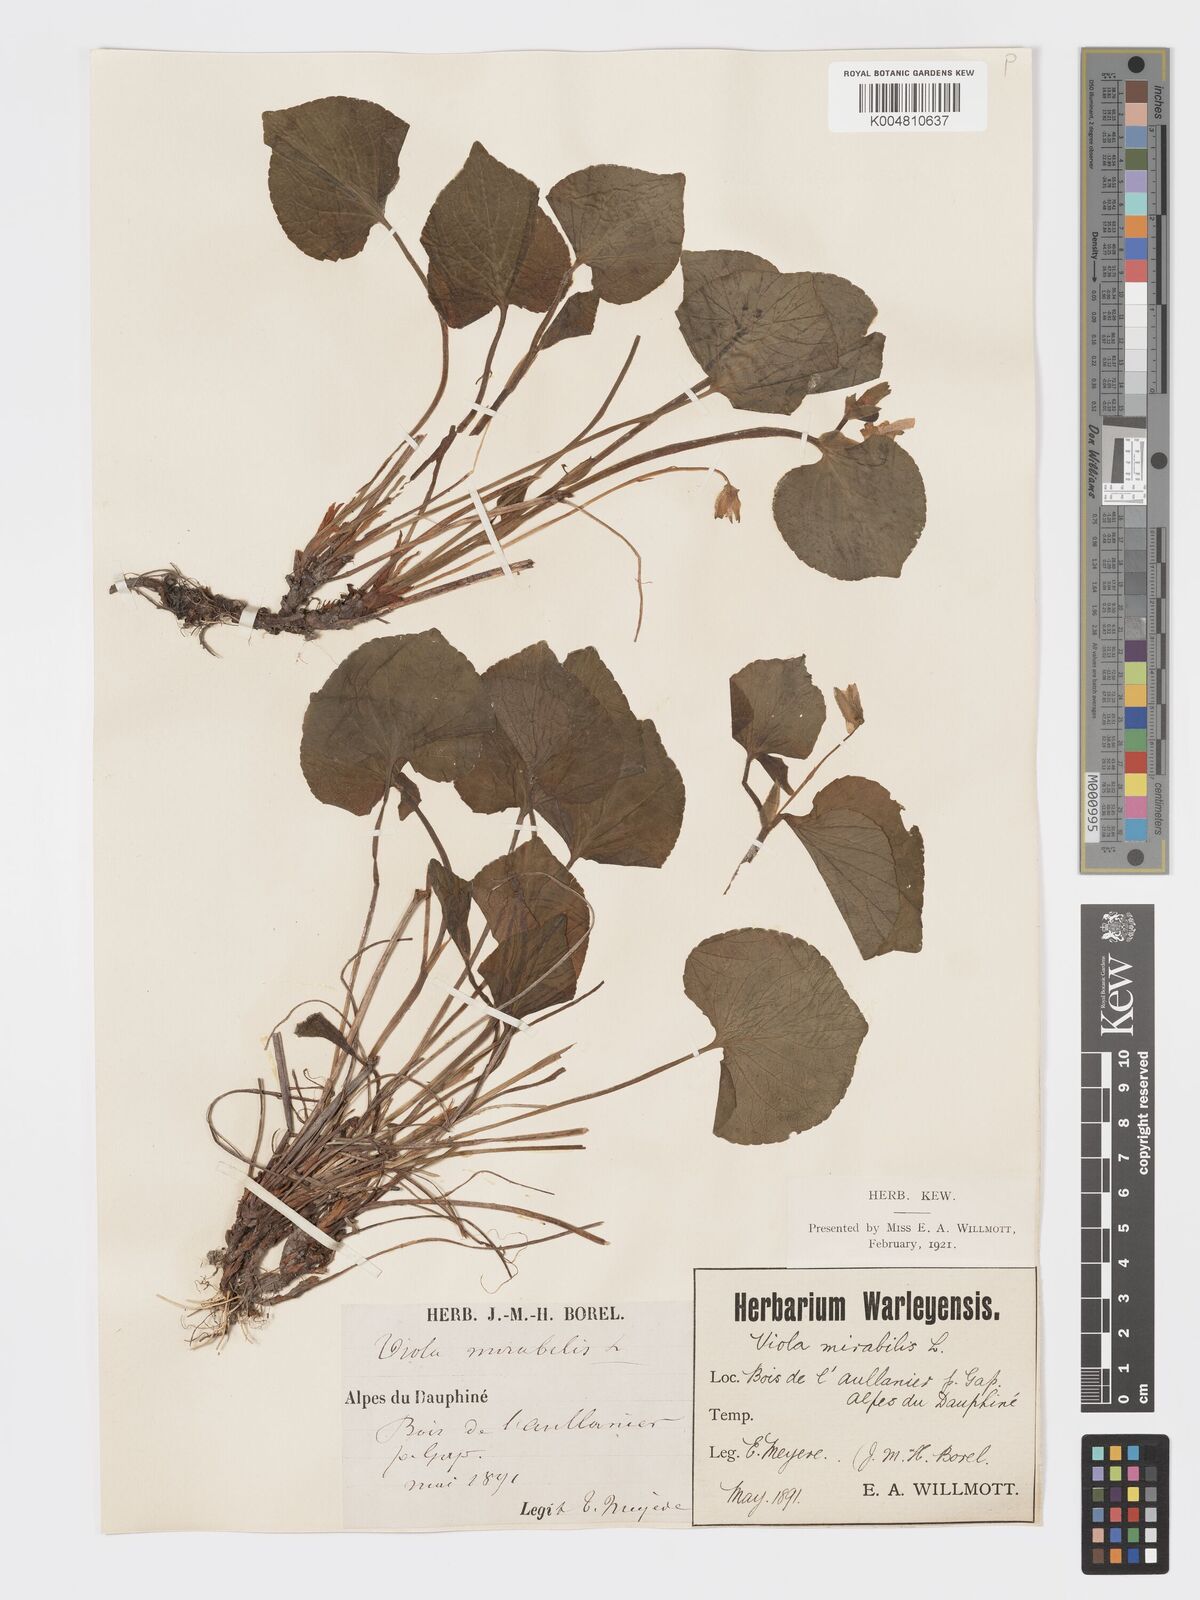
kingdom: Plantae
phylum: Tracheophyta
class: Magnoliopsida
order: Malpighiales
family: Violaceae
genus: Viola
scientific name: Viola mirabilis
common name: Wonder violet
